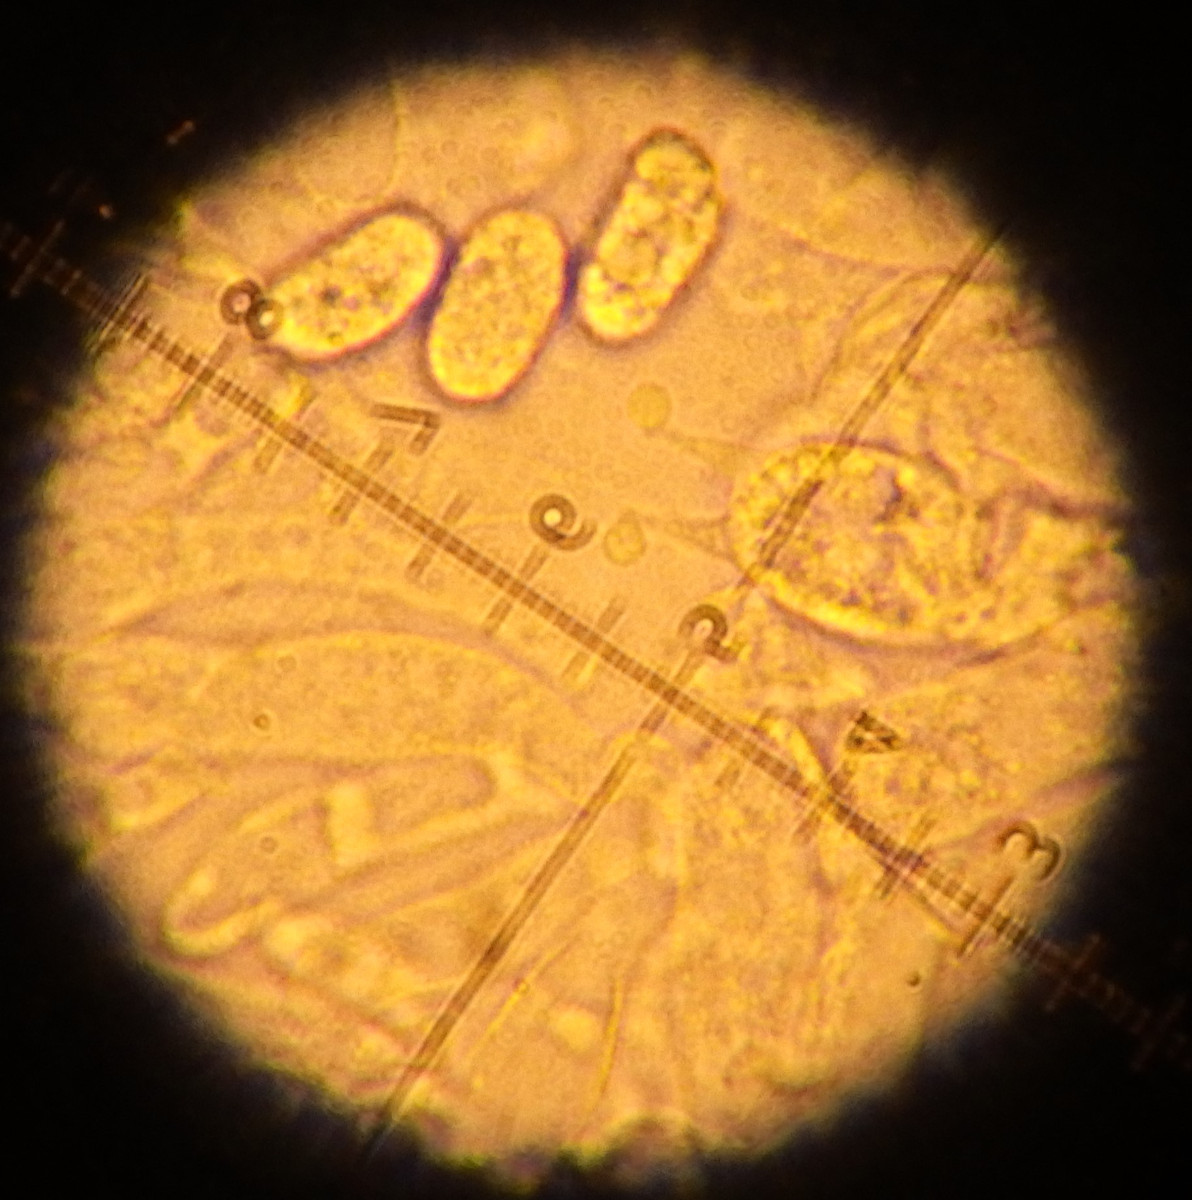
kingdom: Fungi
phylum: Basidiomycota
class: Agaricomycetes
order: Agaricales
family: Hygrophoraceae
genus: Hygrocybe
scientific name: Hygrocybe acutoconica
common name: spidspuklet vokshat
